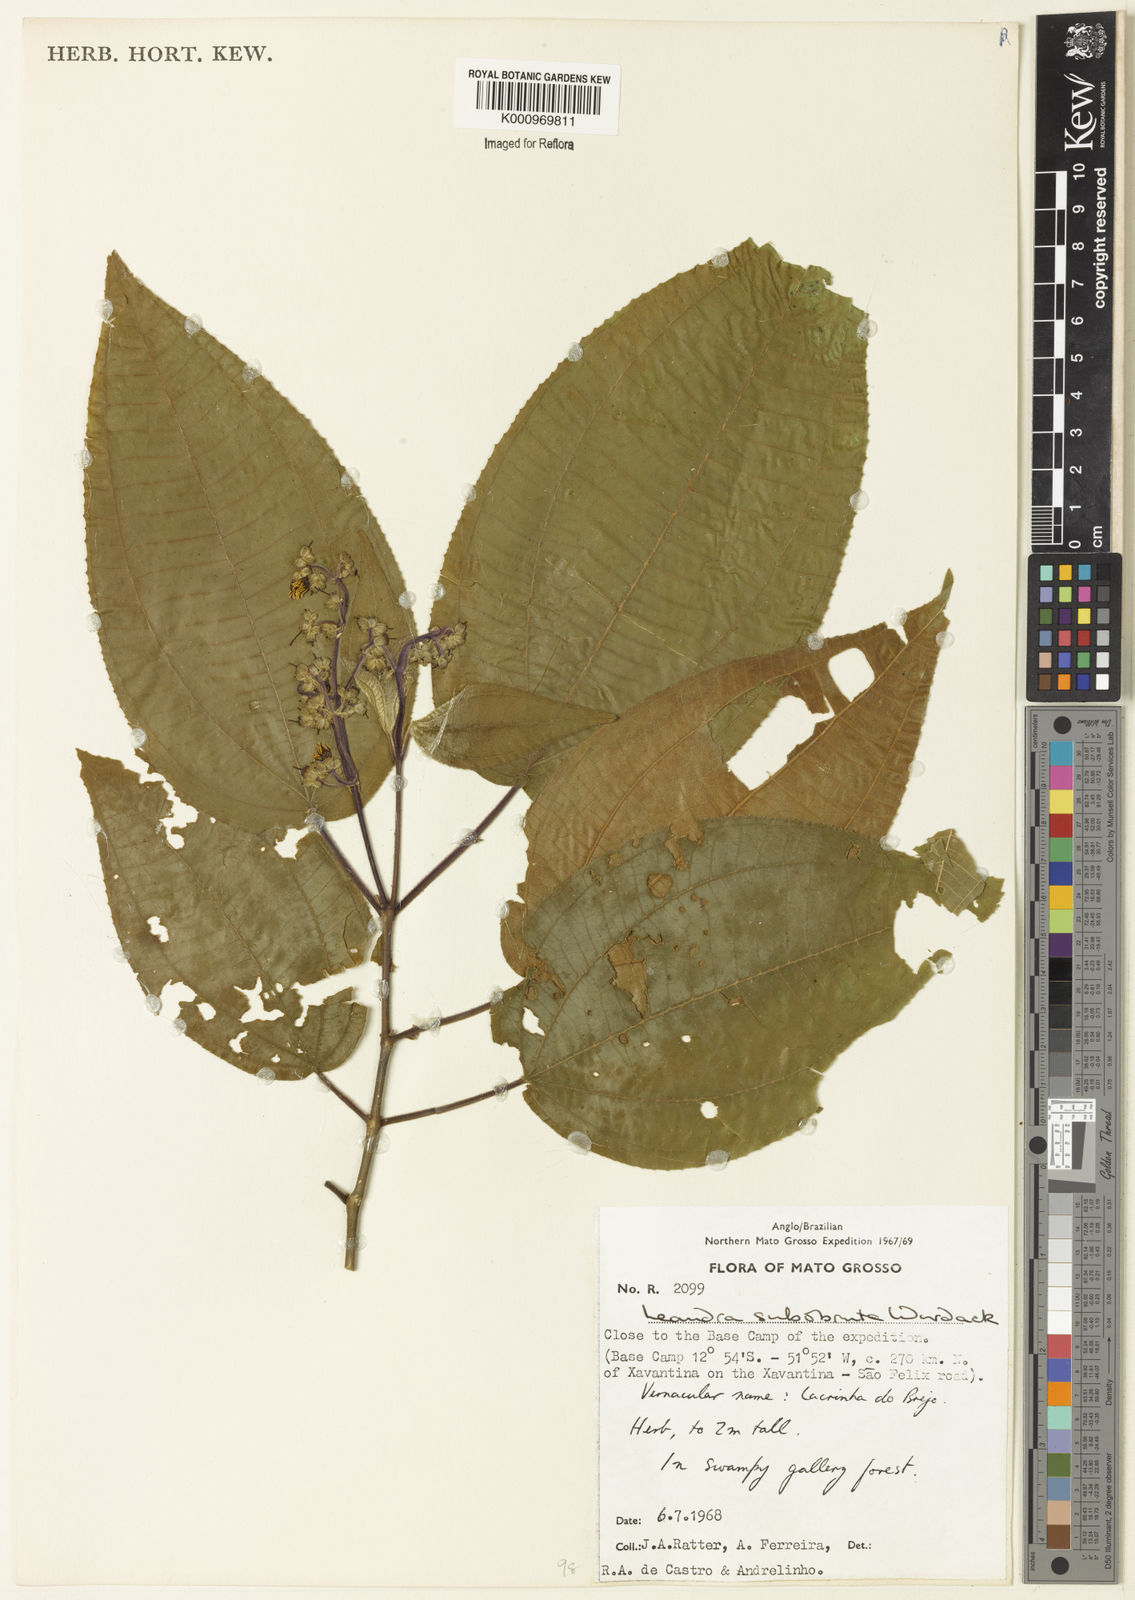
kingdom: Plantae
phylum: Tracheophyta
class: Magnoliopsida
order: Myrtales
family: Melastomataceae
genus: Miconia
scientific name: Miconia subobruta
